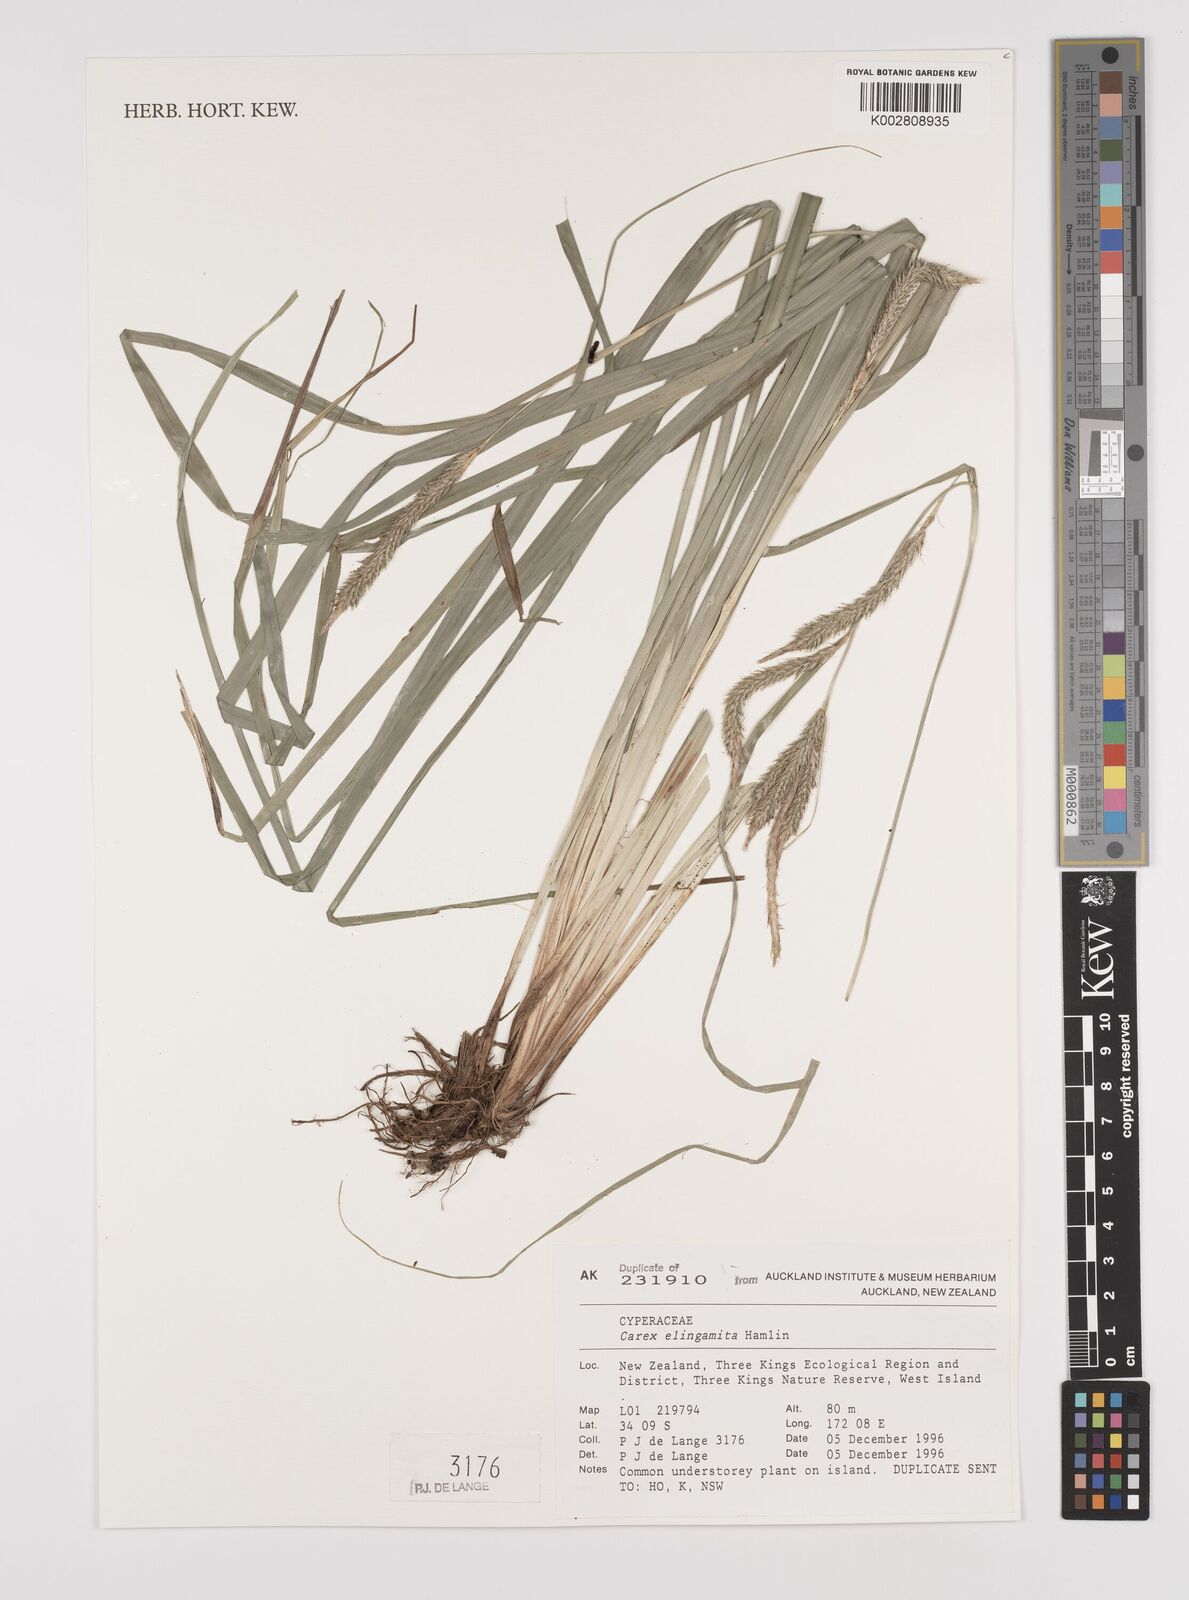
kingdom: Plantae
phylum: Tracheophyta
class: Liliopsida
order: Poales
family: Cyperaceae
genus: Carex
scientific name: Carex elingamita
